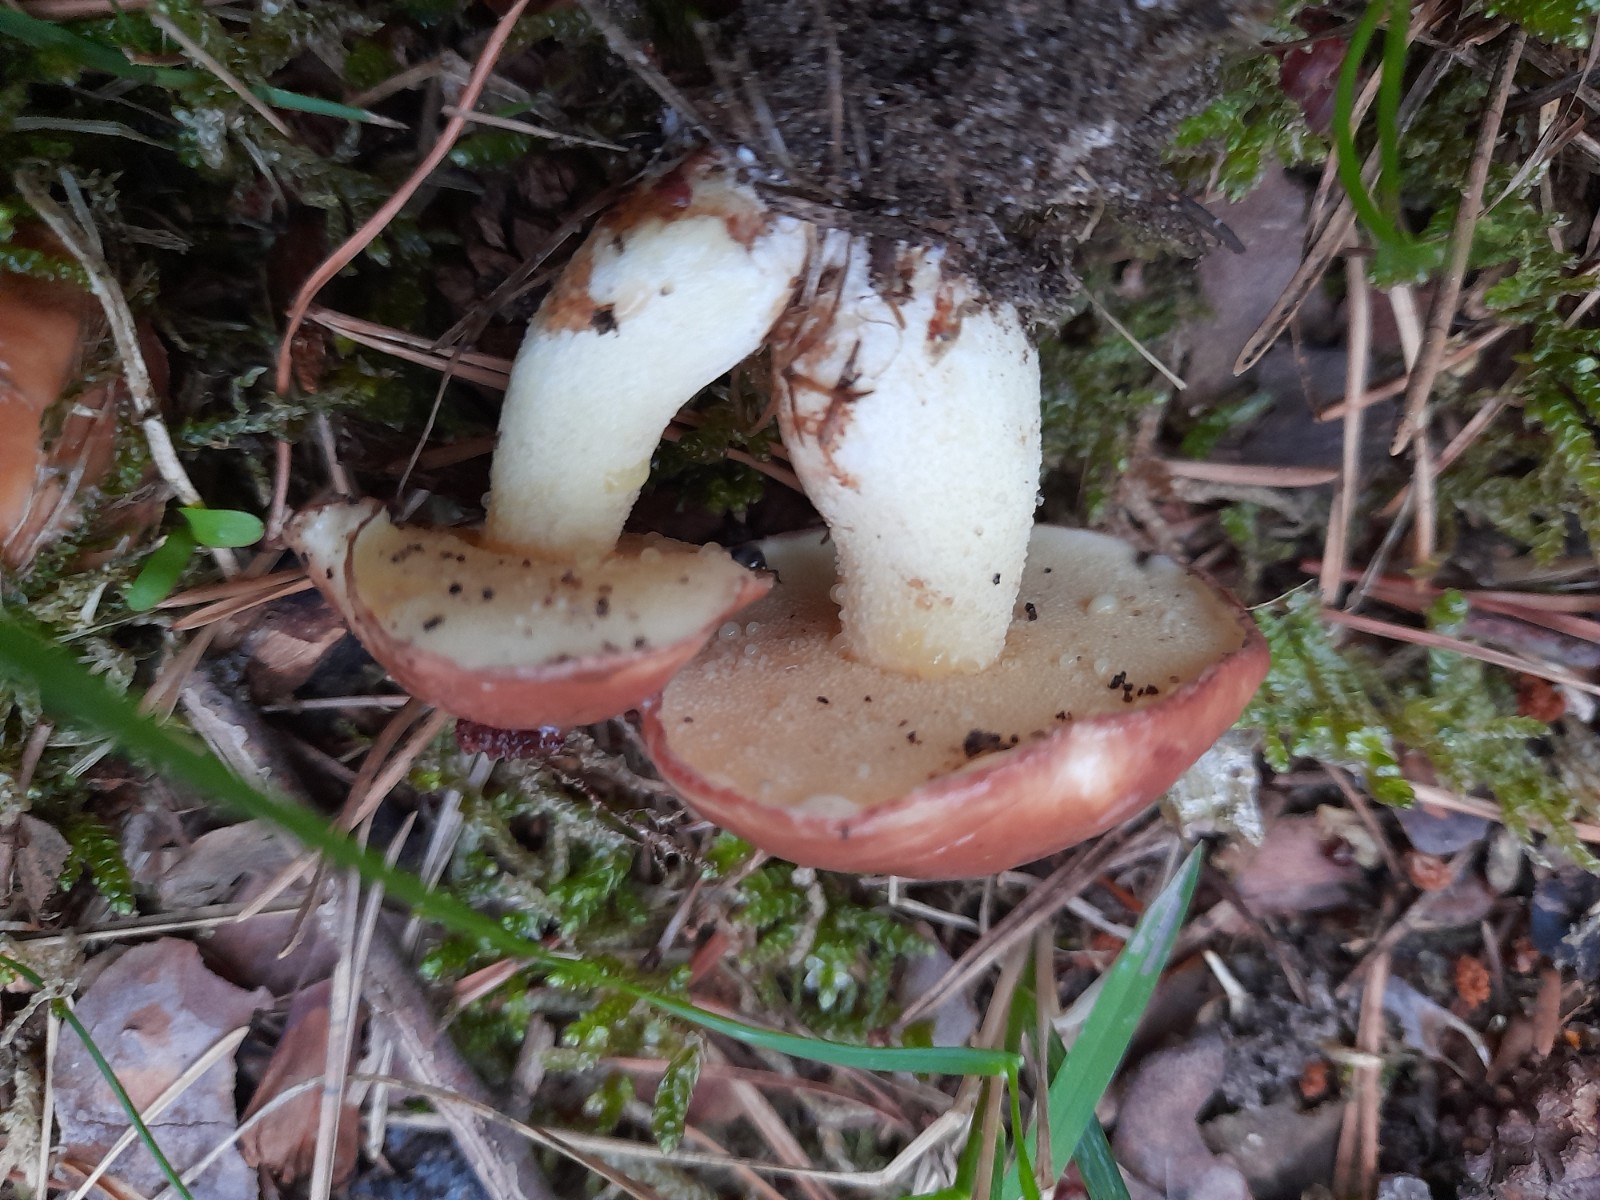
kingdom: Fungi
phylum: Basidiomycota
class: Agaricomycetes
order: Boletales
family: Suillaceae
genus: Suillus
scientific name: Suillus granulatus
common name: kornet slimrørhat
